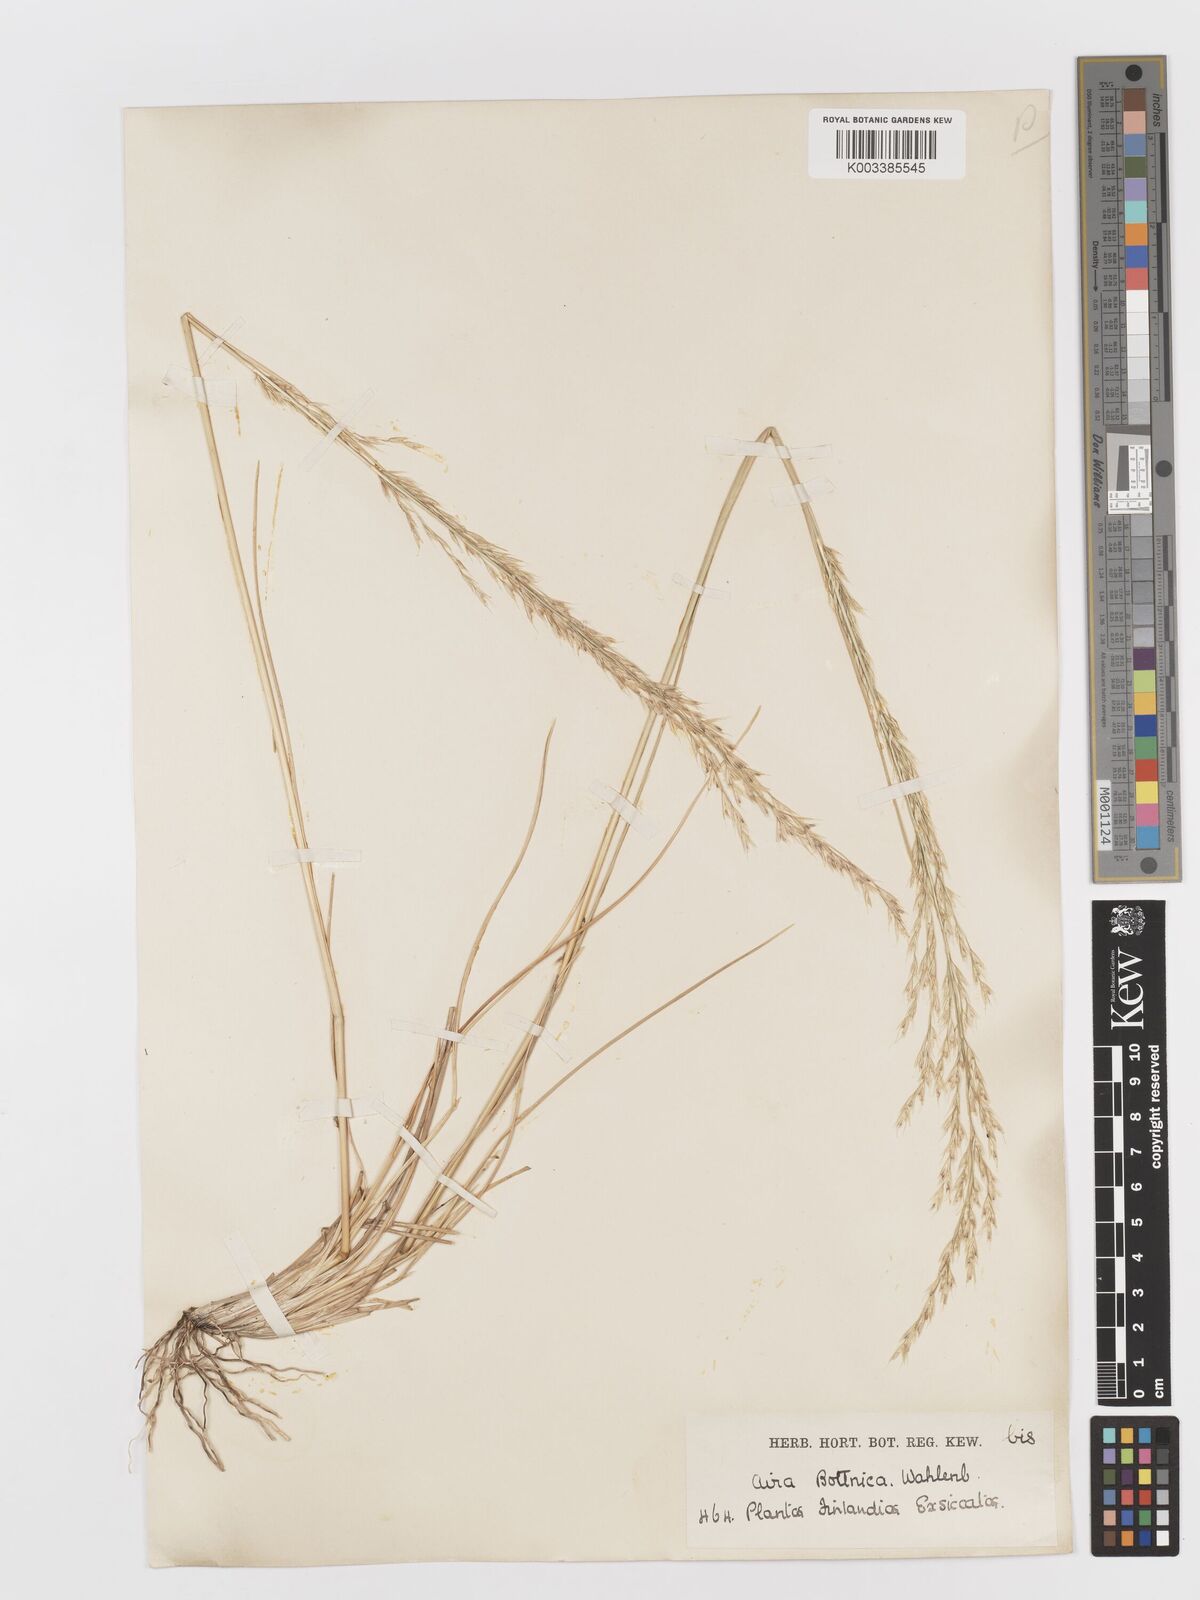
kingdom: Plantae
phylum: Tracheophyta
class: Liliopsida
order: Poales
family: Poaceae
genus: Deschampsia
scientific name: Deschampsia cespitosa
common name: Tufted hair-grass
